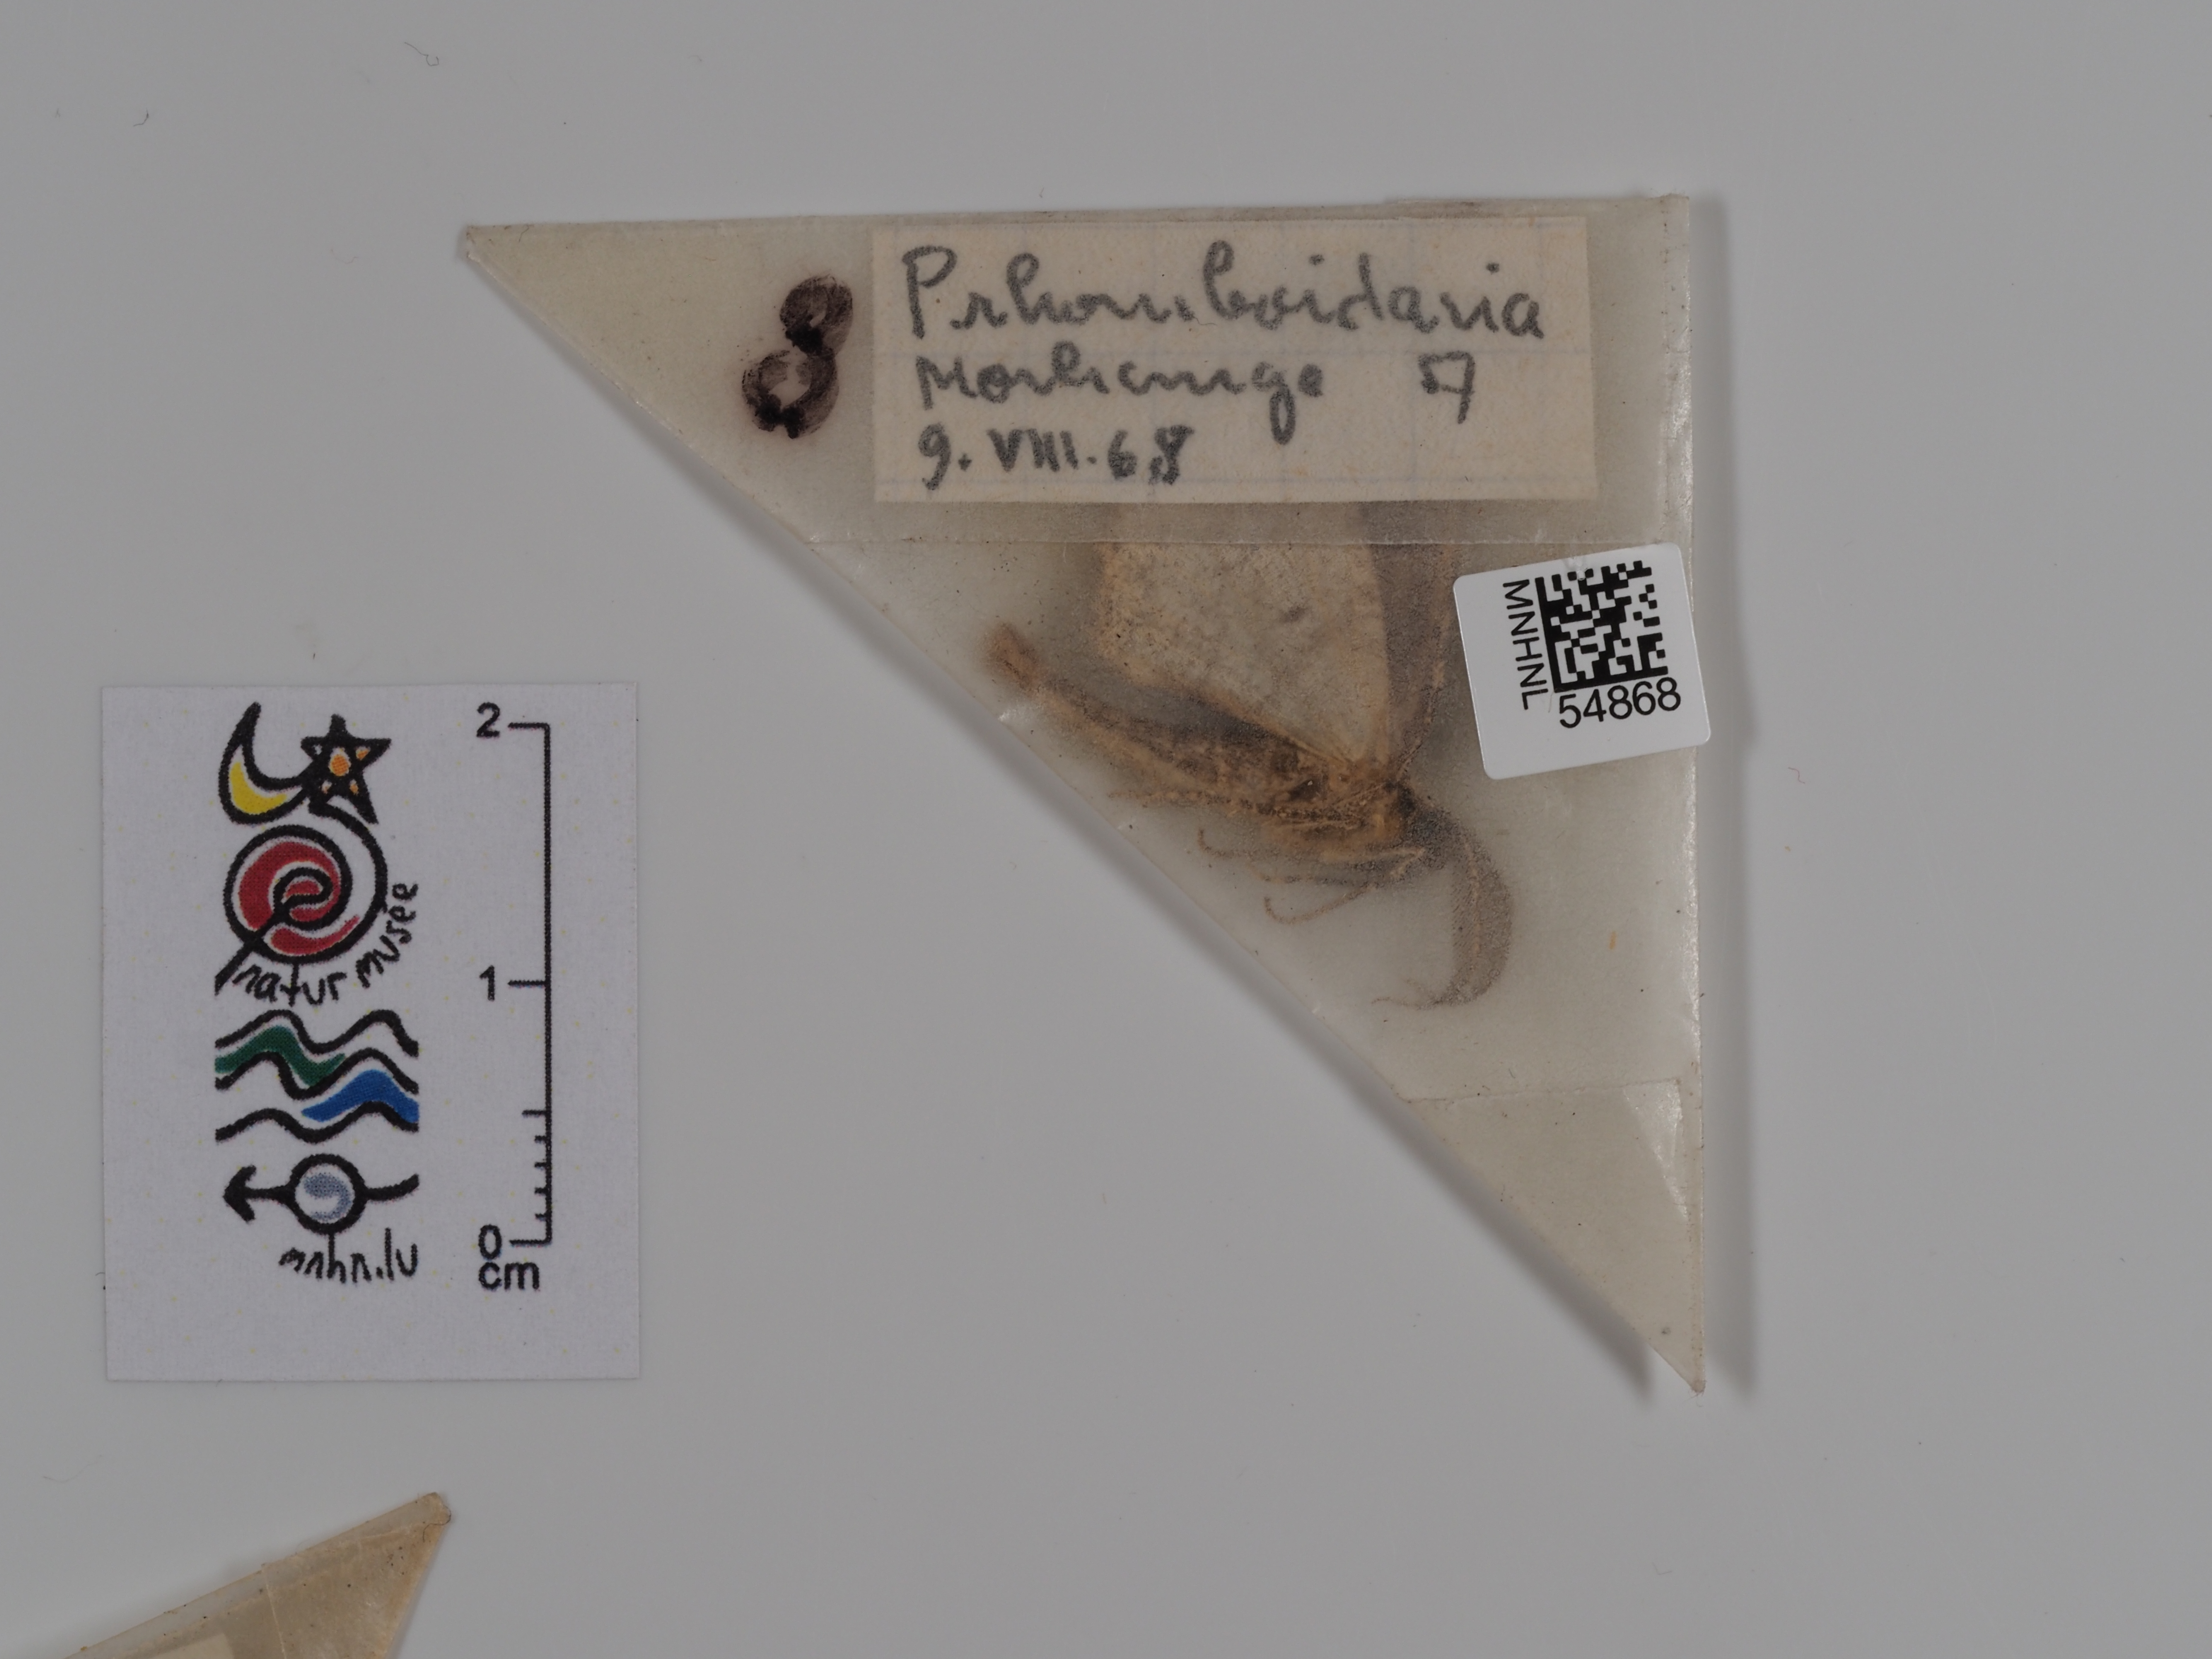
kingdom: Animalia
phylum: Arthropoda
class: Insecta
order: Lepidoptera
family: Geometridae
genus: Peribatodes
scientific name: Peribatodes rhomboidaria
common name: Willow beauty
